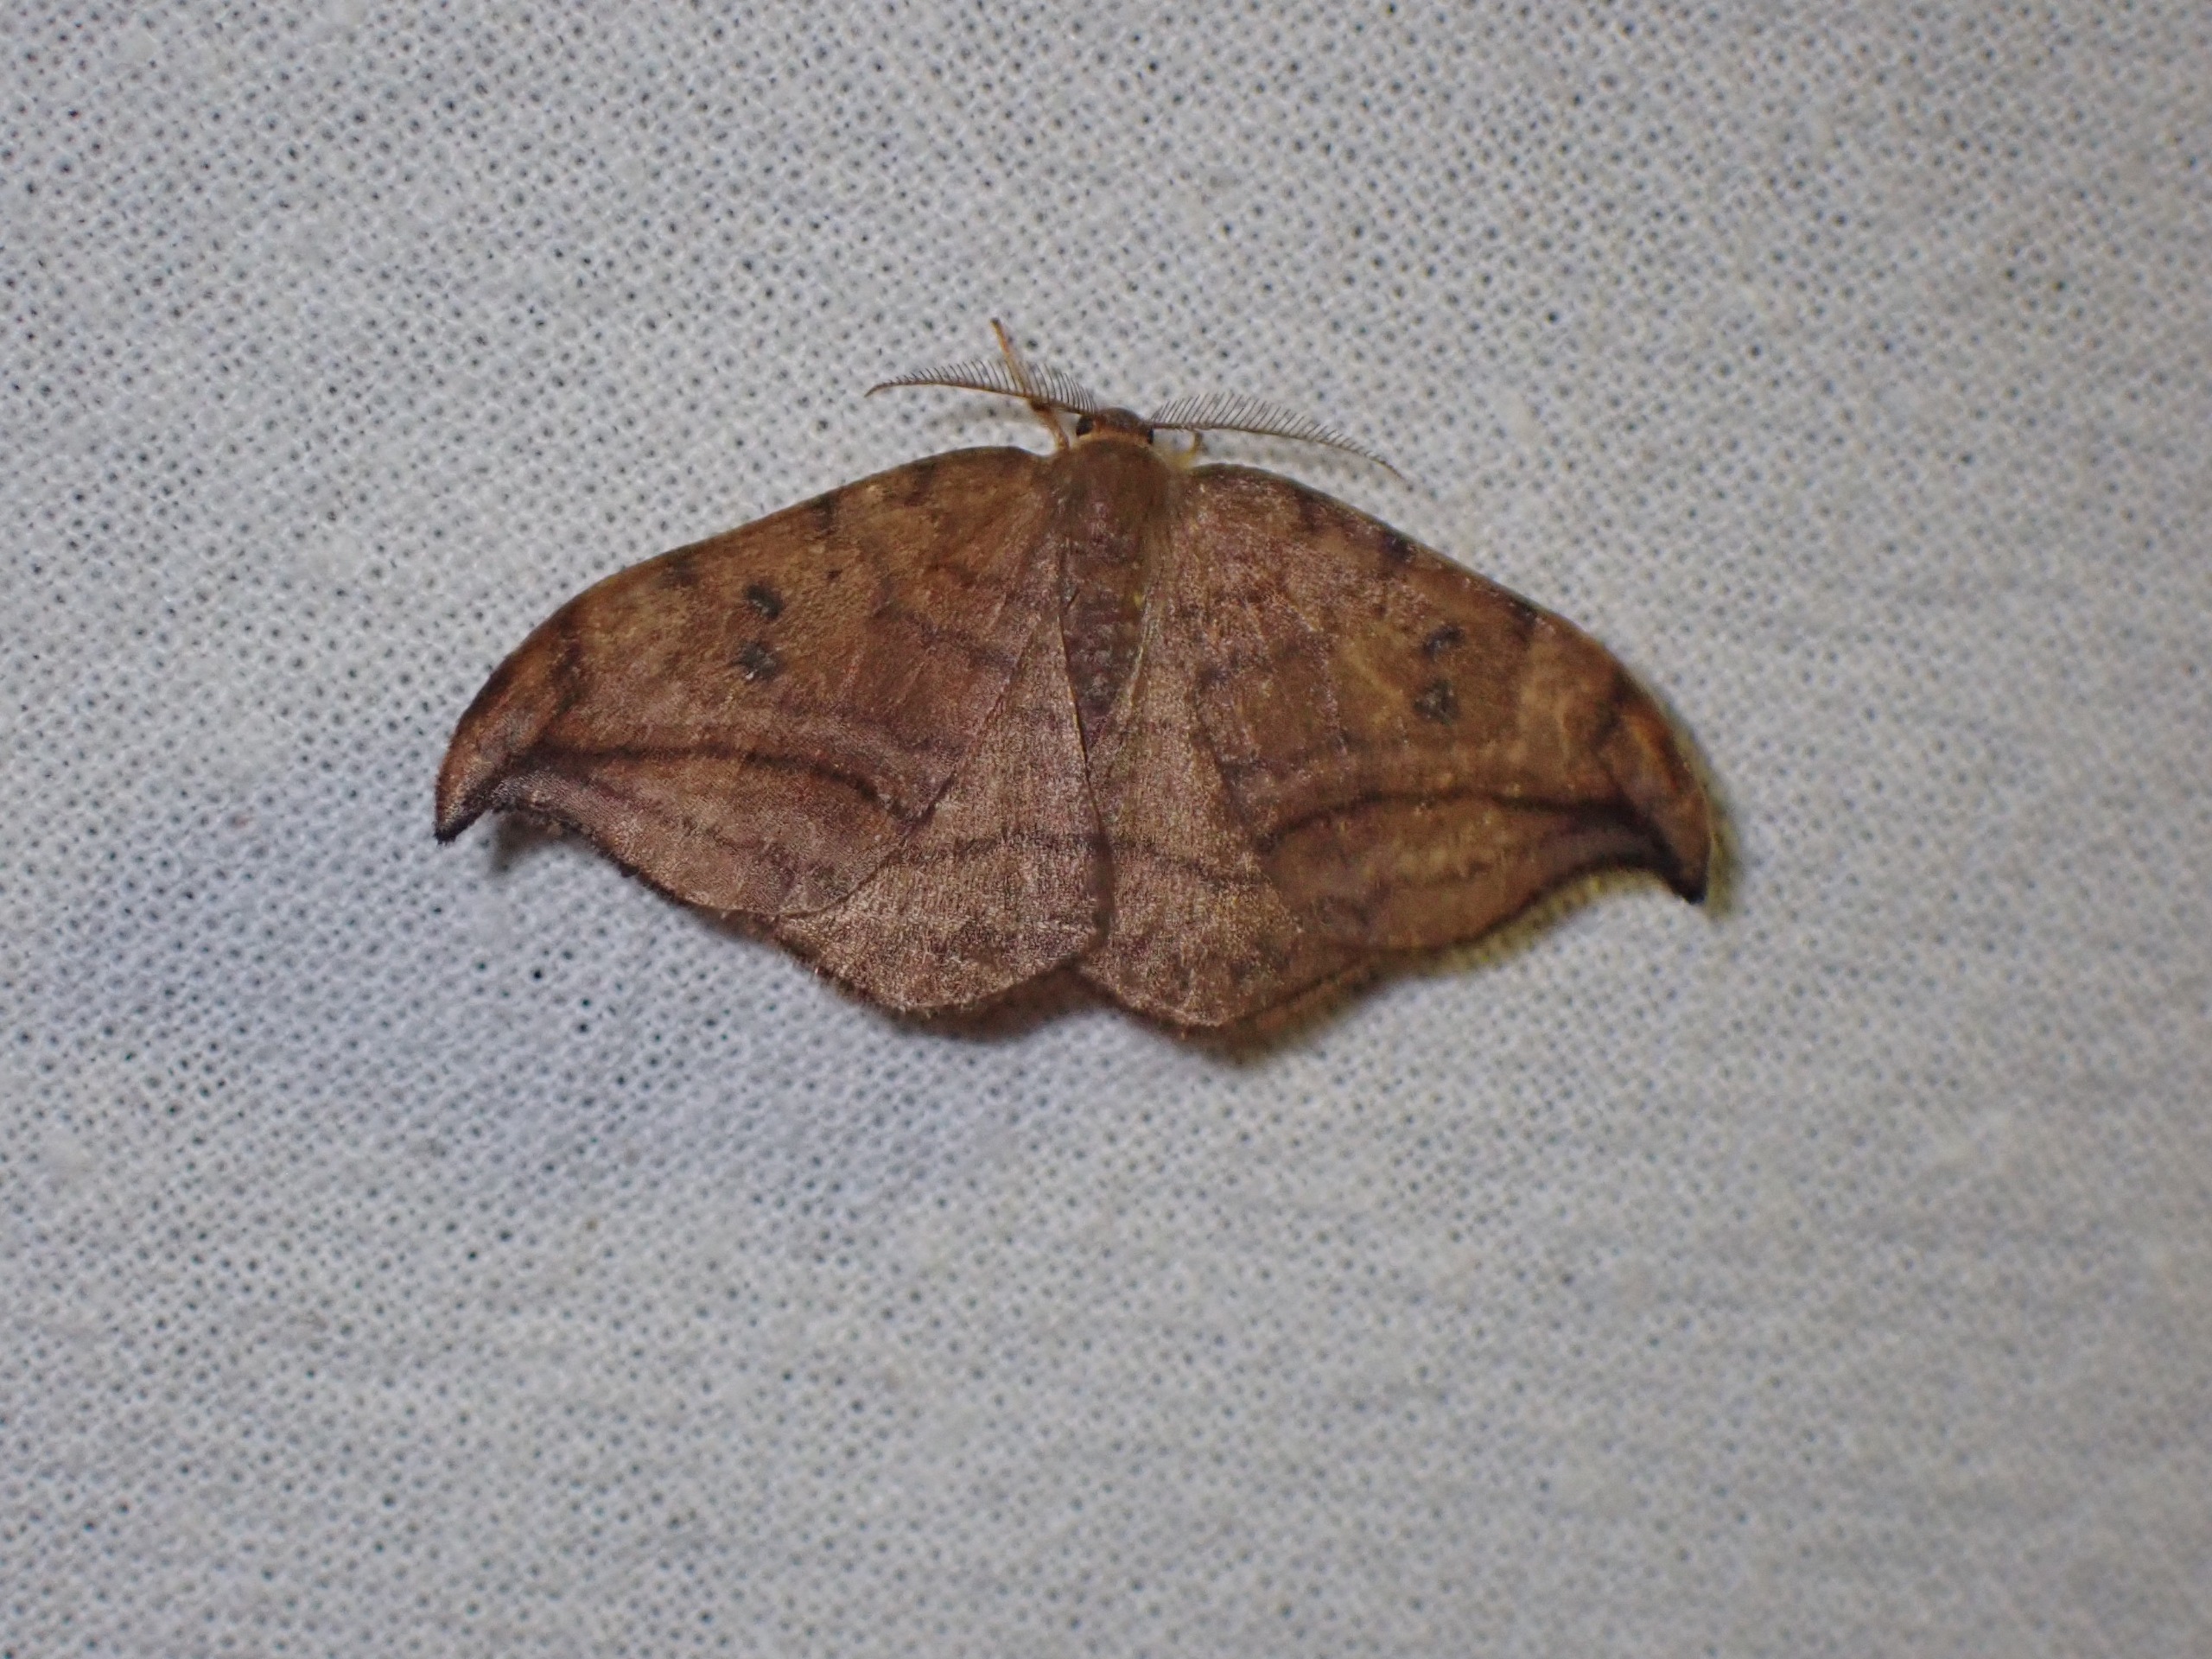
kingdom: Animalia
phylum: Arthropoda
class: Insecta
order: Lepidoptera
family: Drepanidae
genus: Drepana
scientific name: Drepana curvatula
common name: Brun seglvinge
